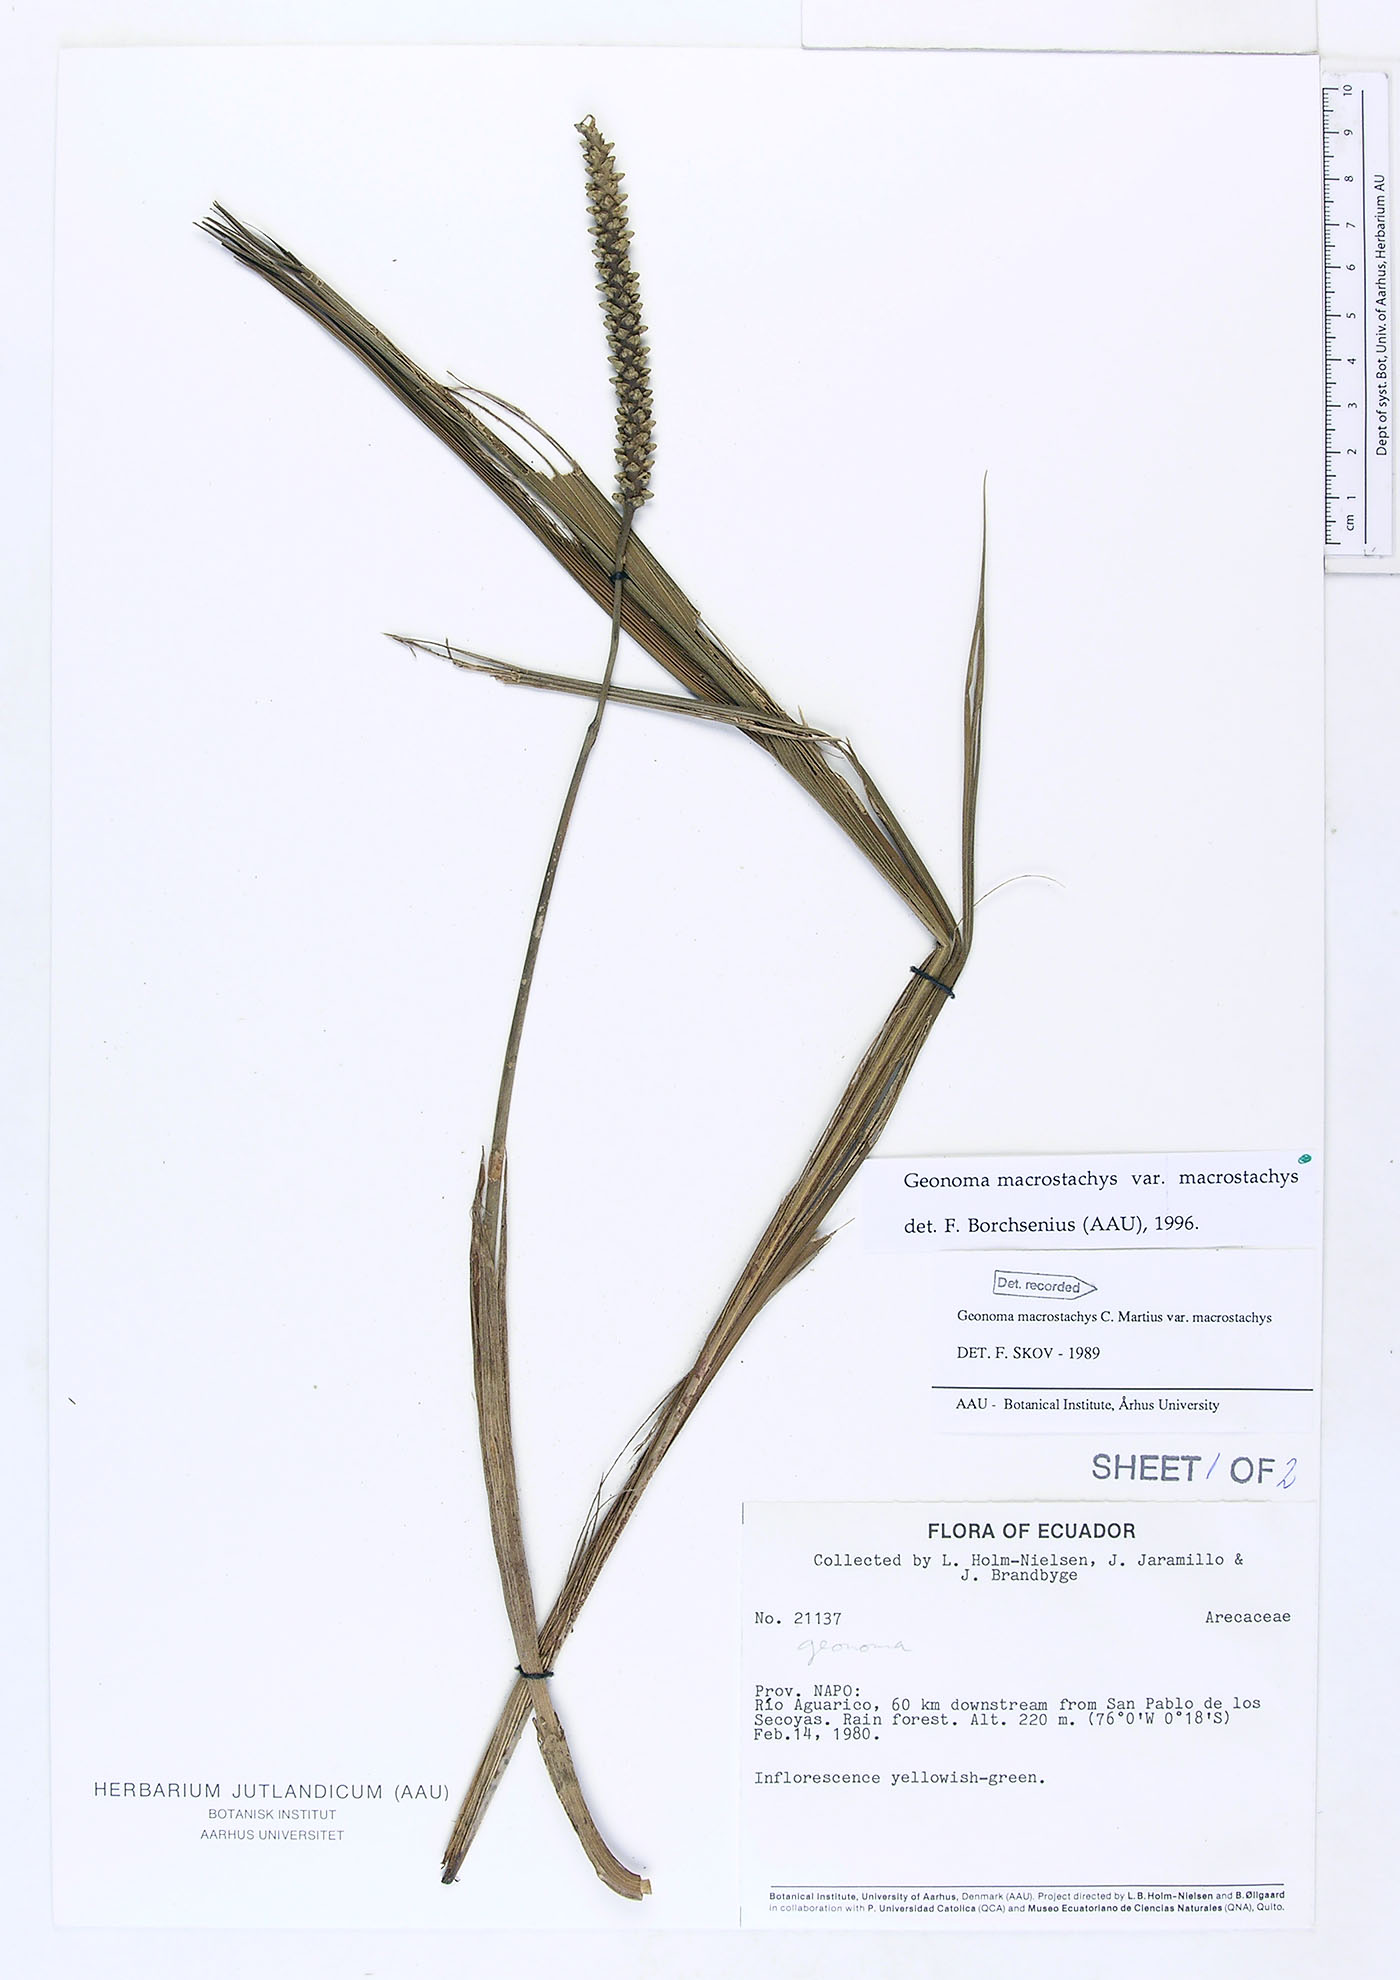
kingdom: Plantae
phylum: Tracheophyta
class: Liliopsida
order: Arecales
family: Arecaceae
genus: Geonoma
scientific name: Geonoma macrostachys
